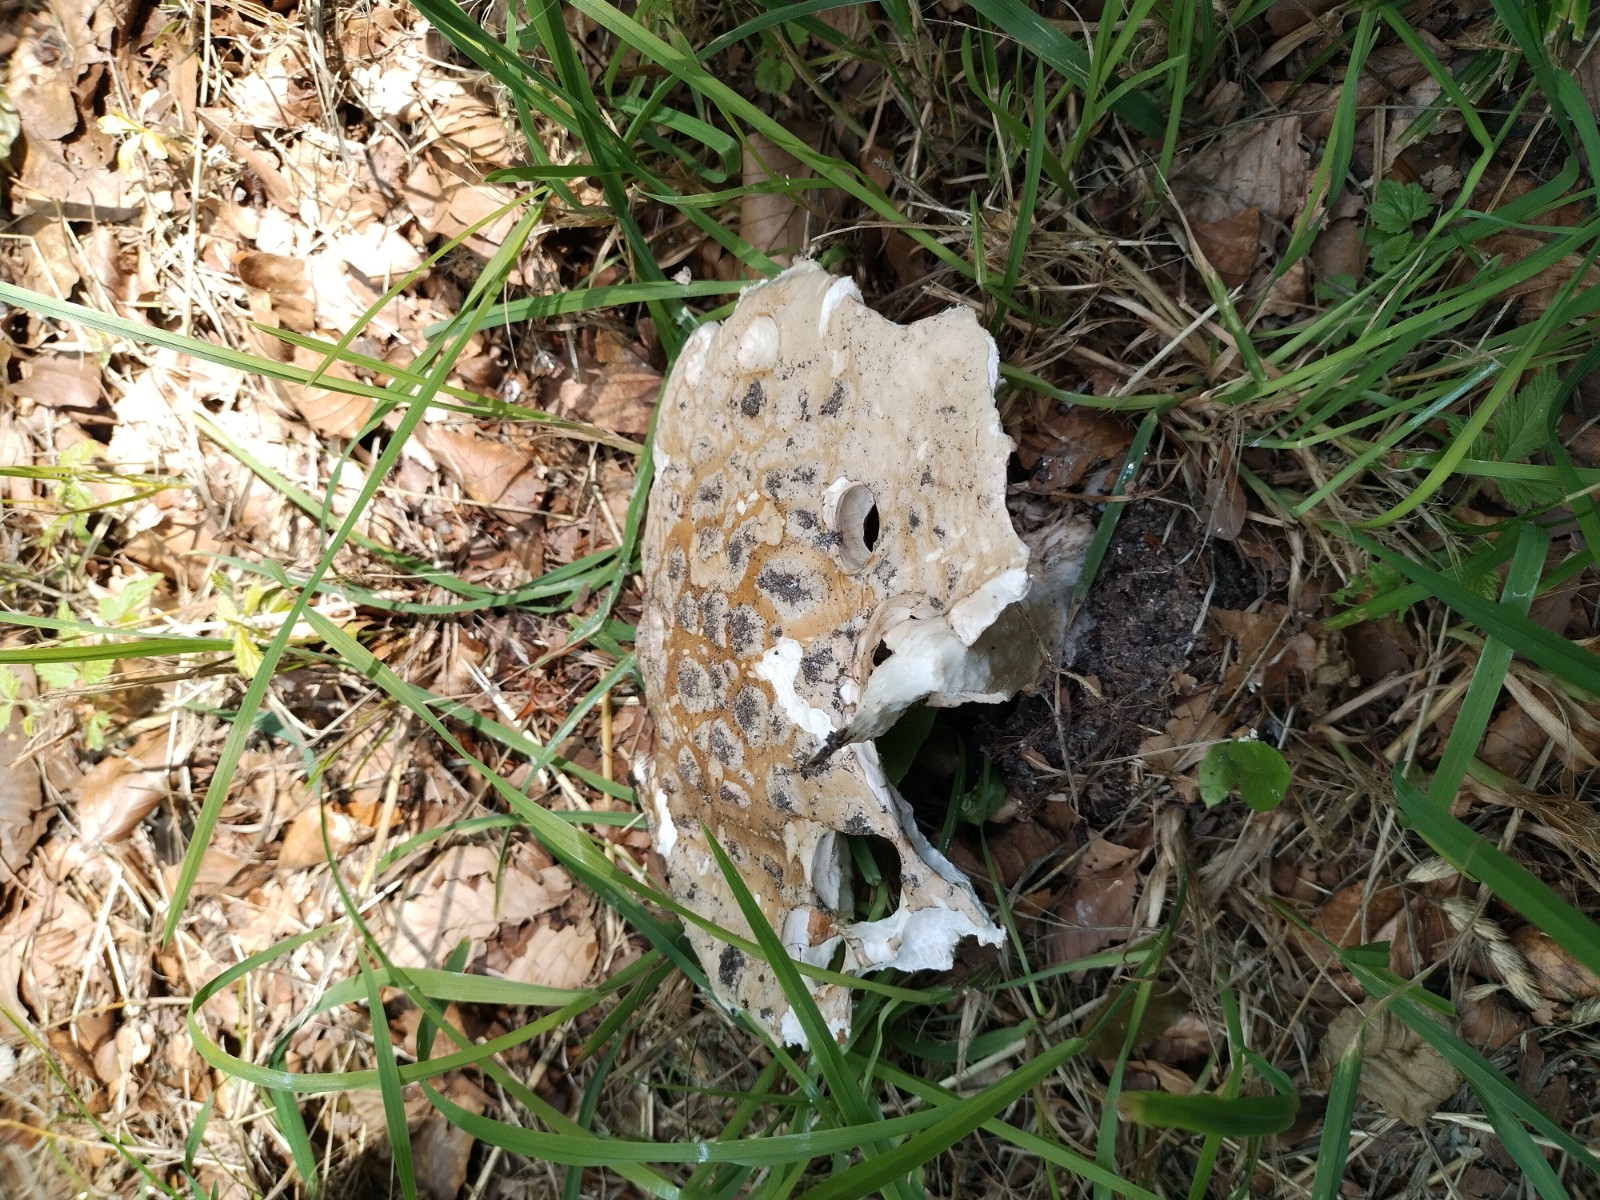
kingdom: Fungi
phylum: Basidiomycota
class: Agaricomycetes
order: Agaricales
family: Amanitaceae
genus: Amanita
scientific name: Amanita
